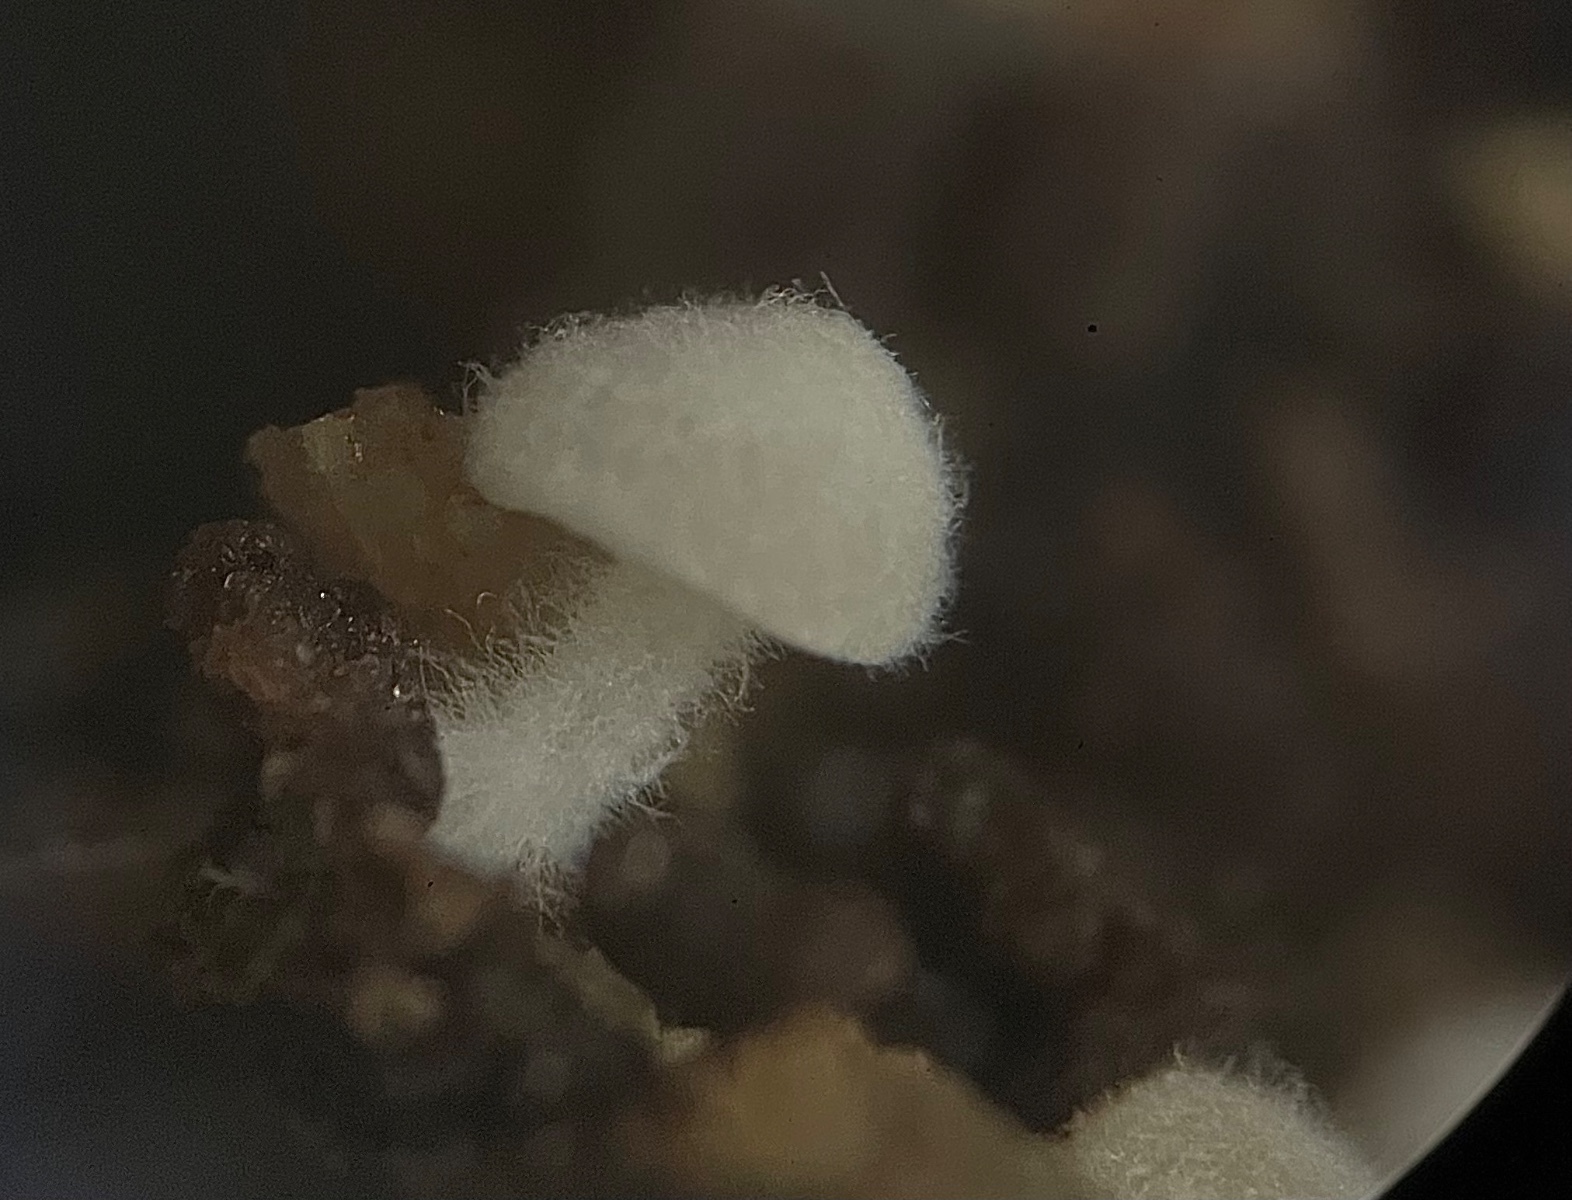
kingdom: Fungi
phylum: Basidiomycota
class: Agaricomycetes
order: Agaricales
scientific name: Agaricales
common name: champignonordenen
